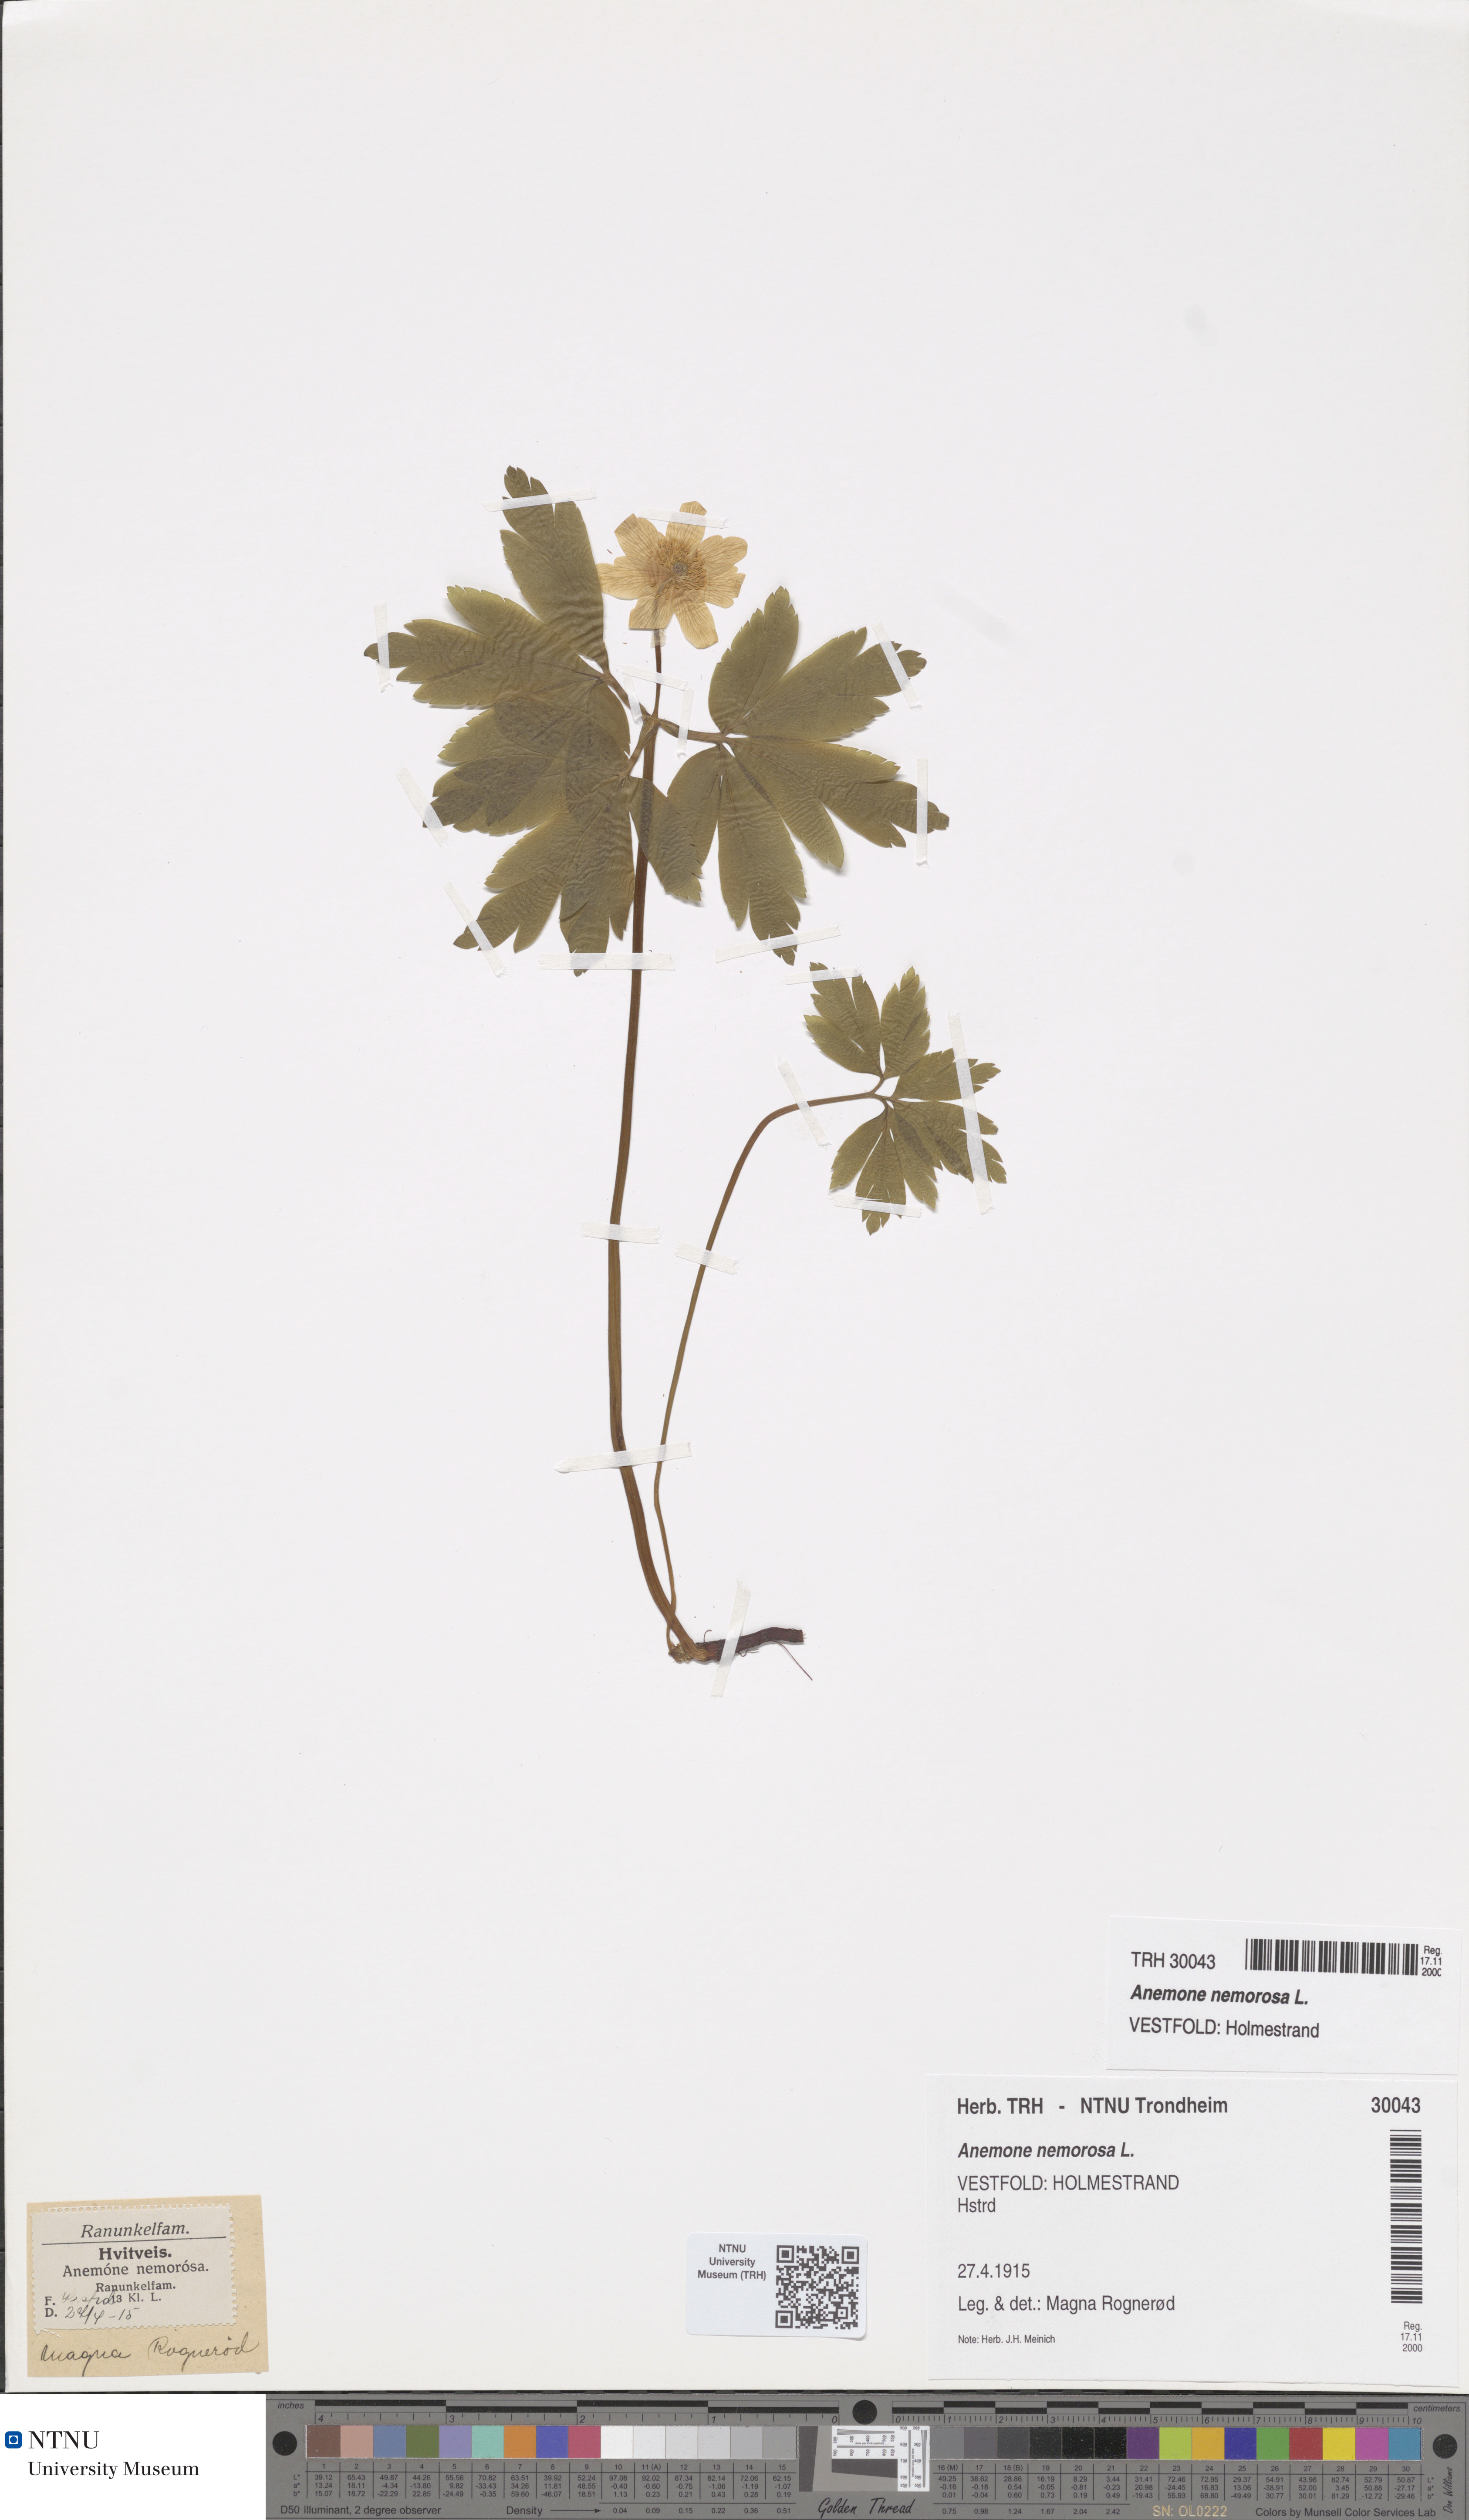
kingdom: Plantae
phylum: Tracheophyta
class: Magnoliopsida
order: Ranunculales
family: Ranunculaceae
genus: Anemone
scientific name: Anemone nemorosa
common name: Wood anemone
